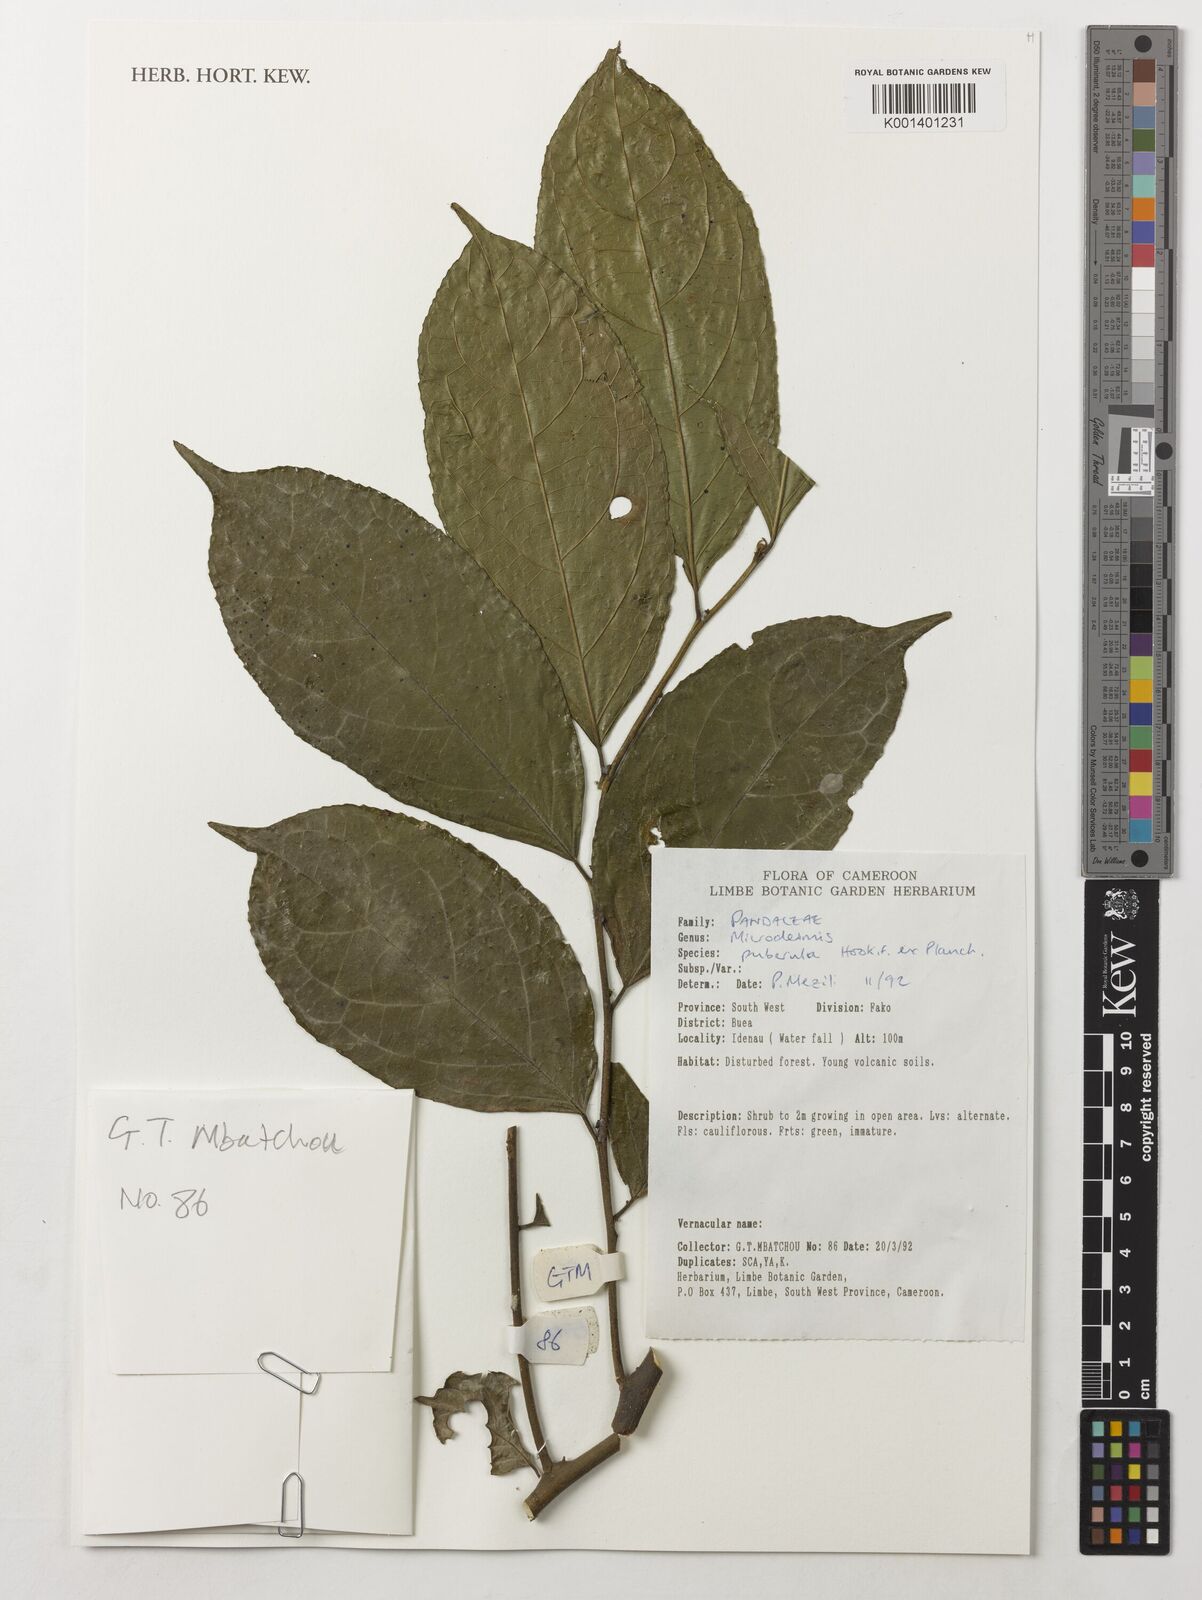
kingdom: Plantae
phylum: Tracheophyta
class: Magnoliopsida
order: Malpighiales
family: Pandaceae
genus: Microdesmis
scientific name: Microdesmis puberula
